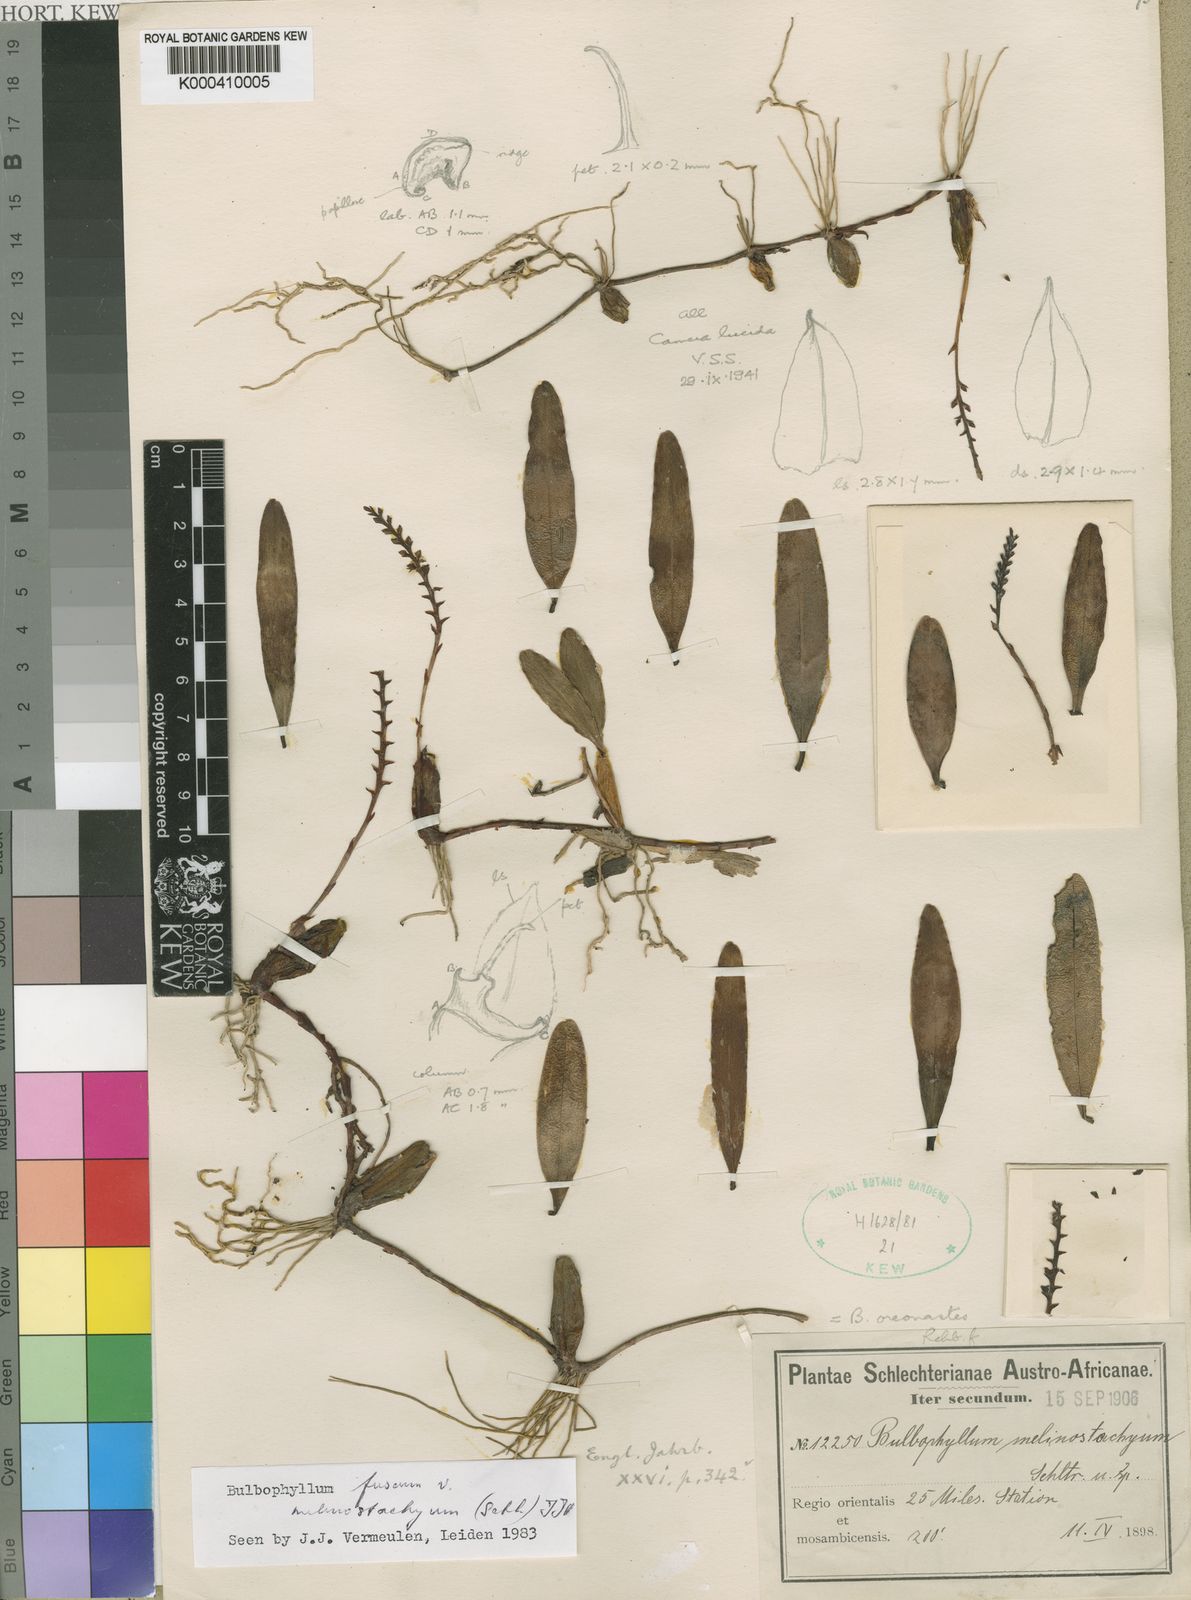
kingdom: Plantae
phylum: Tracheophyta
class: Liliopsida
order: Asparagales
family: Orchidaceae
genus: Bulbophyllum
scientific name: Bulbophyllum oreonastes
